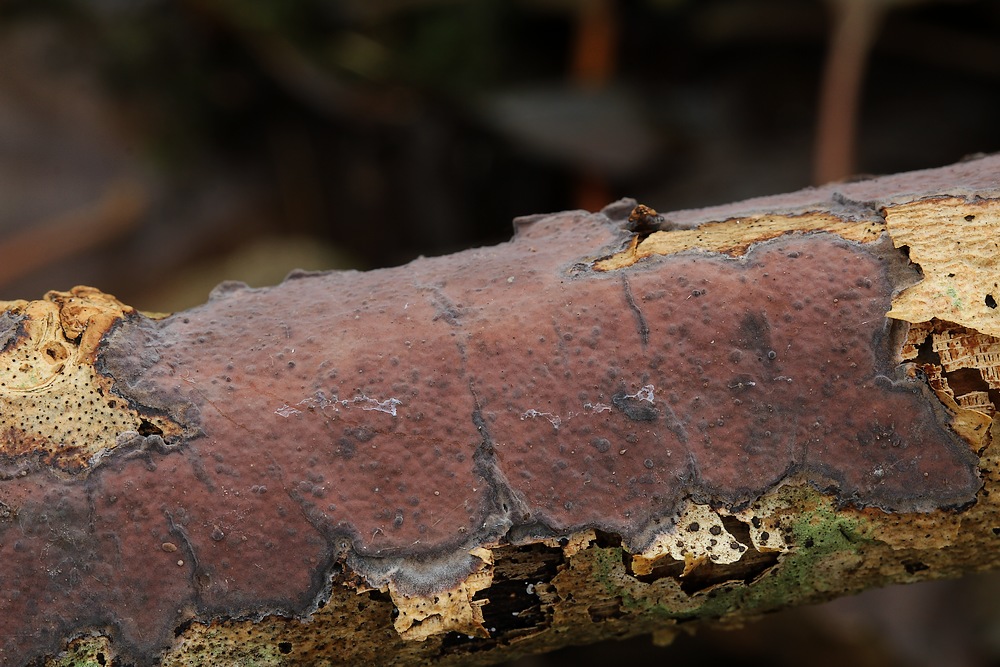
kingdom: Fungi
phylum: Basidiomycota
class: Agaricomycetes
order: Russulales
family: Peniophoraceae
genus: Peniophora
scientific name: Peniophora limitata
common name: mørkrandet voksskind
